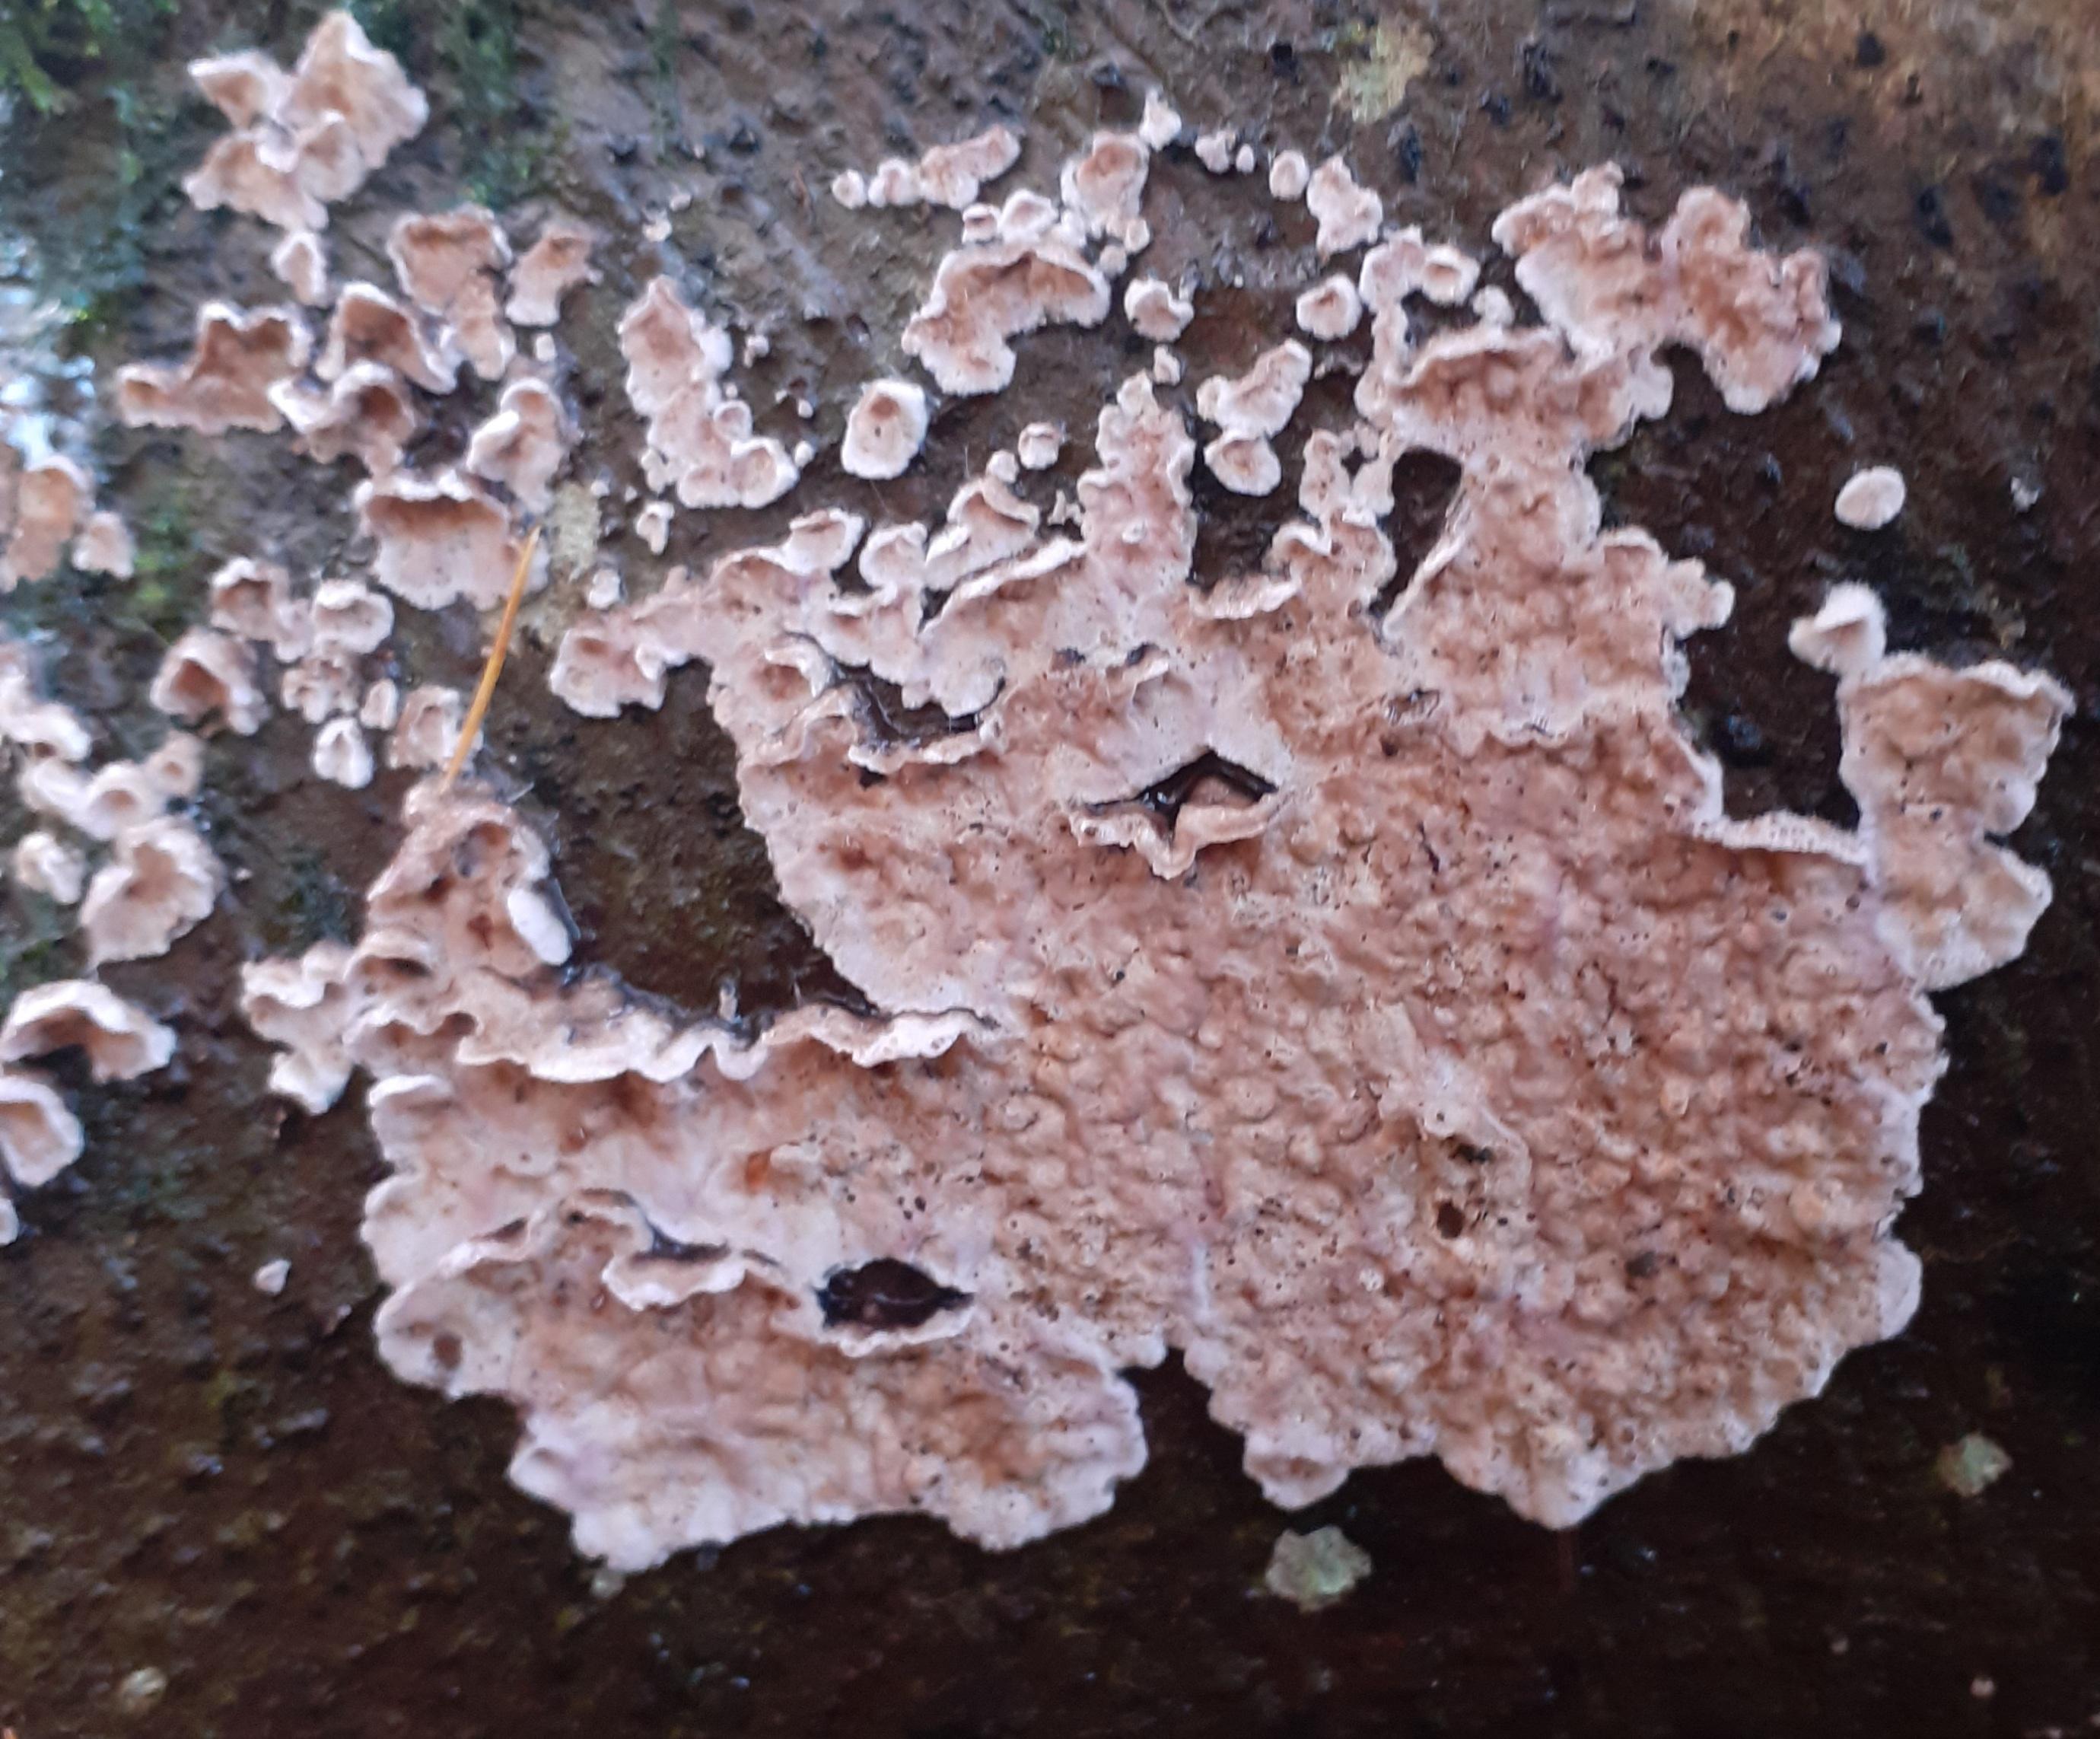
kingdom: Fungi
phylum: Basidiomycota
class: Agaricomycetes
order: Agaricales
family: Physalacriaceae
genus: Cylindrobasidium
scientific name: Cylindrobasidium evolvens
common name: sprækkehinde
